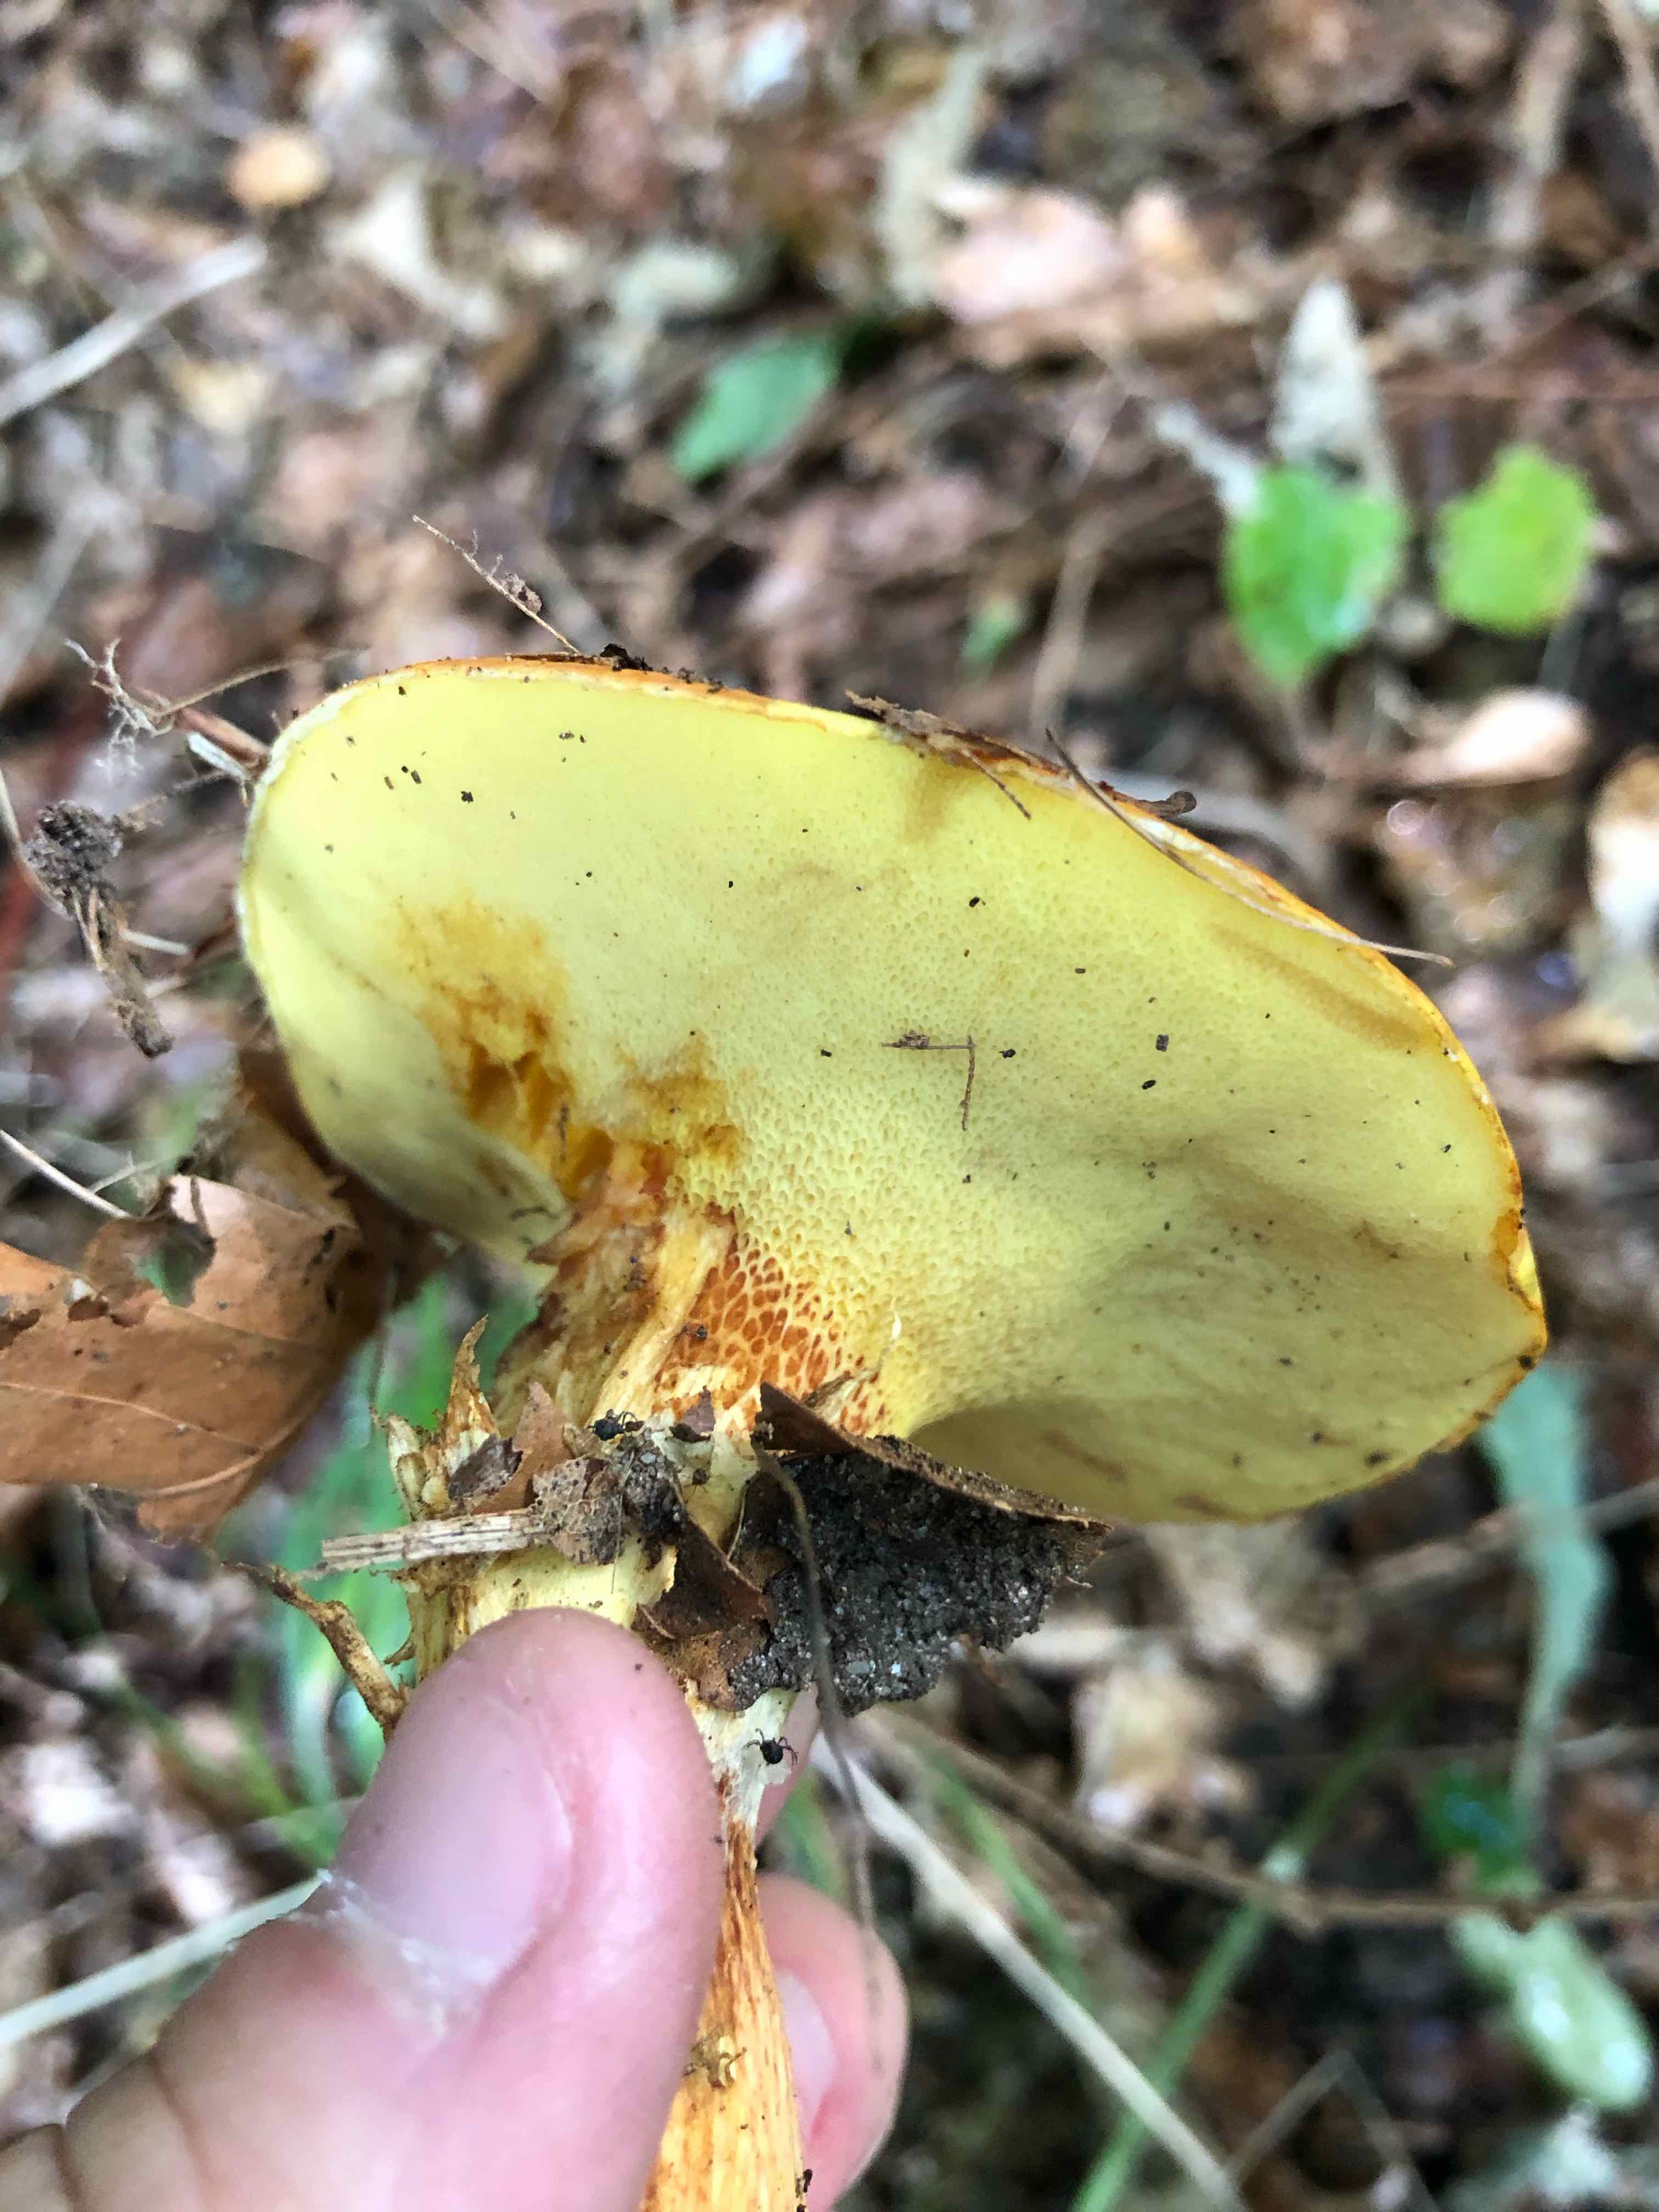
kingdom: Fungi
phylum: Basidiomycota
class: Agaricomycetes
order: Boletales
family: Suillaceae
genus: Suillus
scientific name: Suillus grevillei
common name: lærke-slimrørhat
